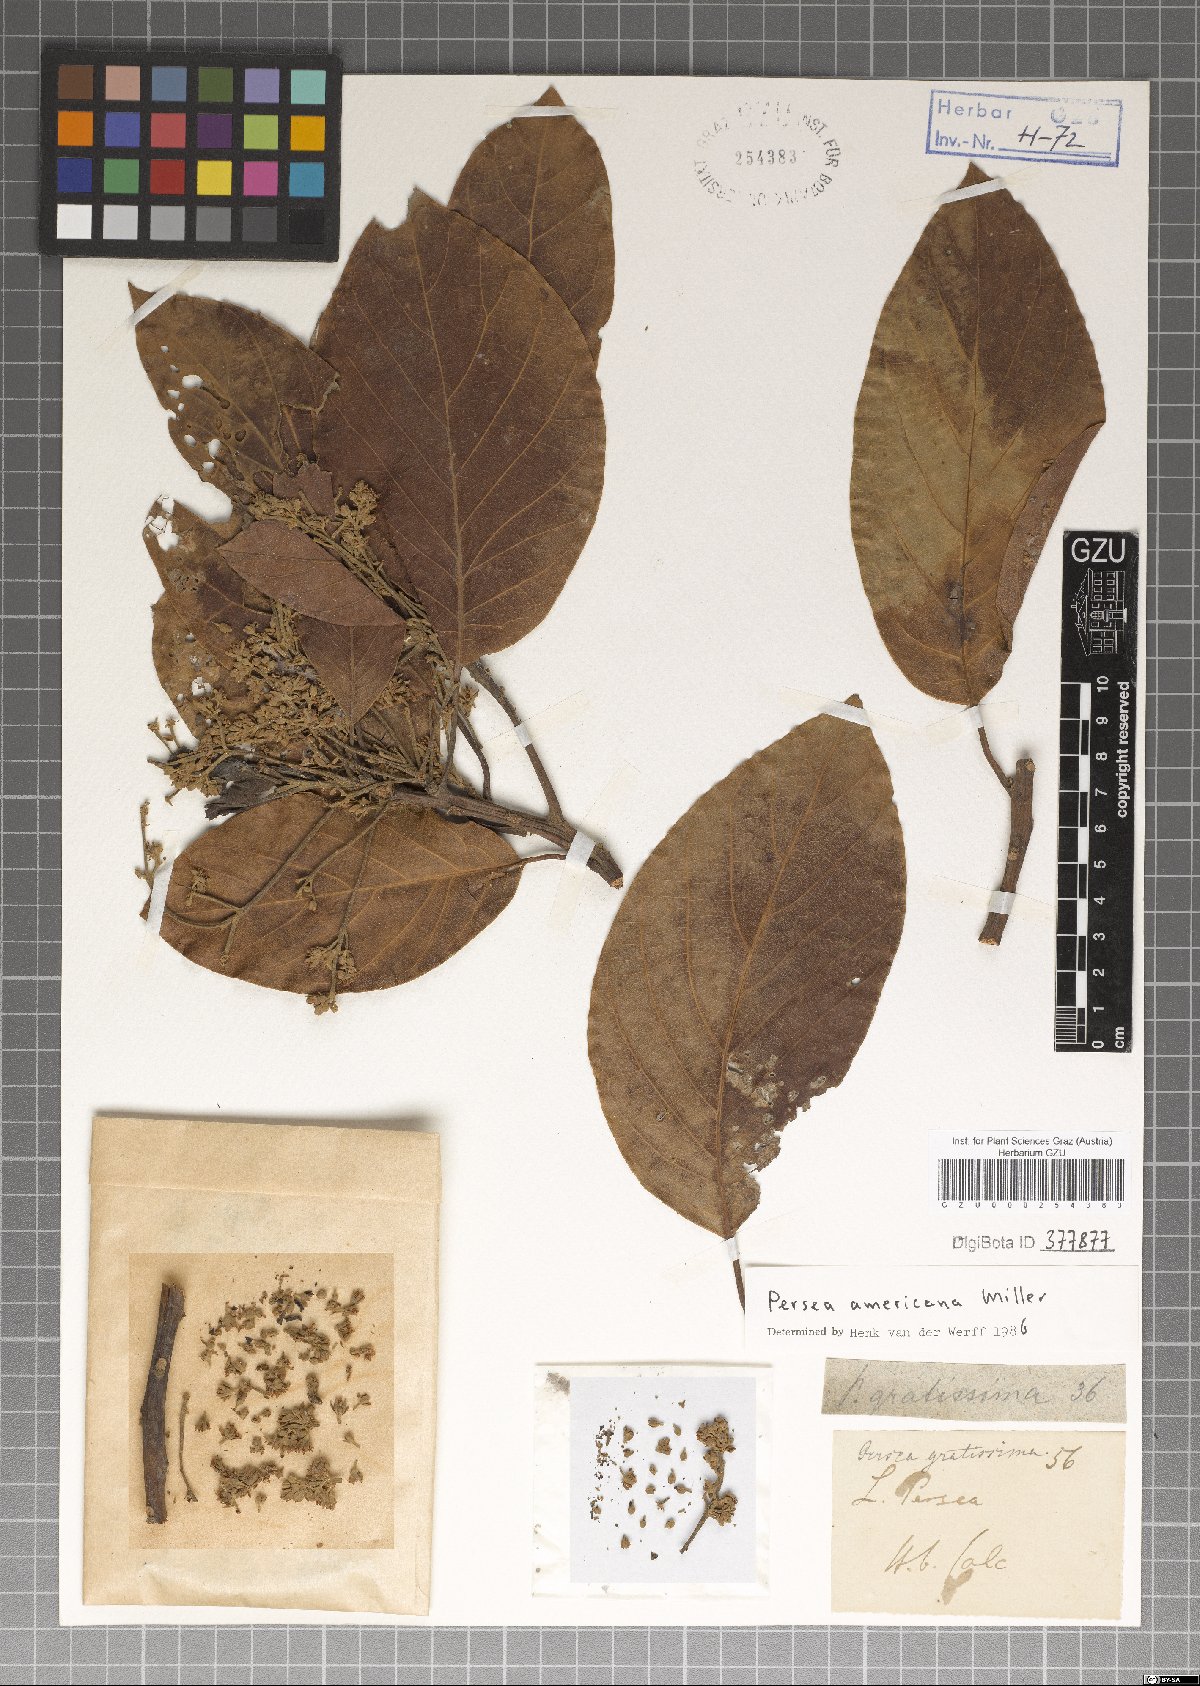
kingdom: Plantae
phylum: Tracheophyta
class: Magnoliopsida
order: Laurales
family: Lauraceae
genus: Persea
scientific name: Persea americana
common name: Avocado
